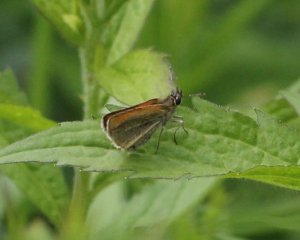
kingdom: Animalia
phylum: Arthropoda
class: Insecta
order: Lepidoptera
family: Hesperiidae
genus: Thymelicus
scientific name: Thymelicus lineola
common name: European Skipper
